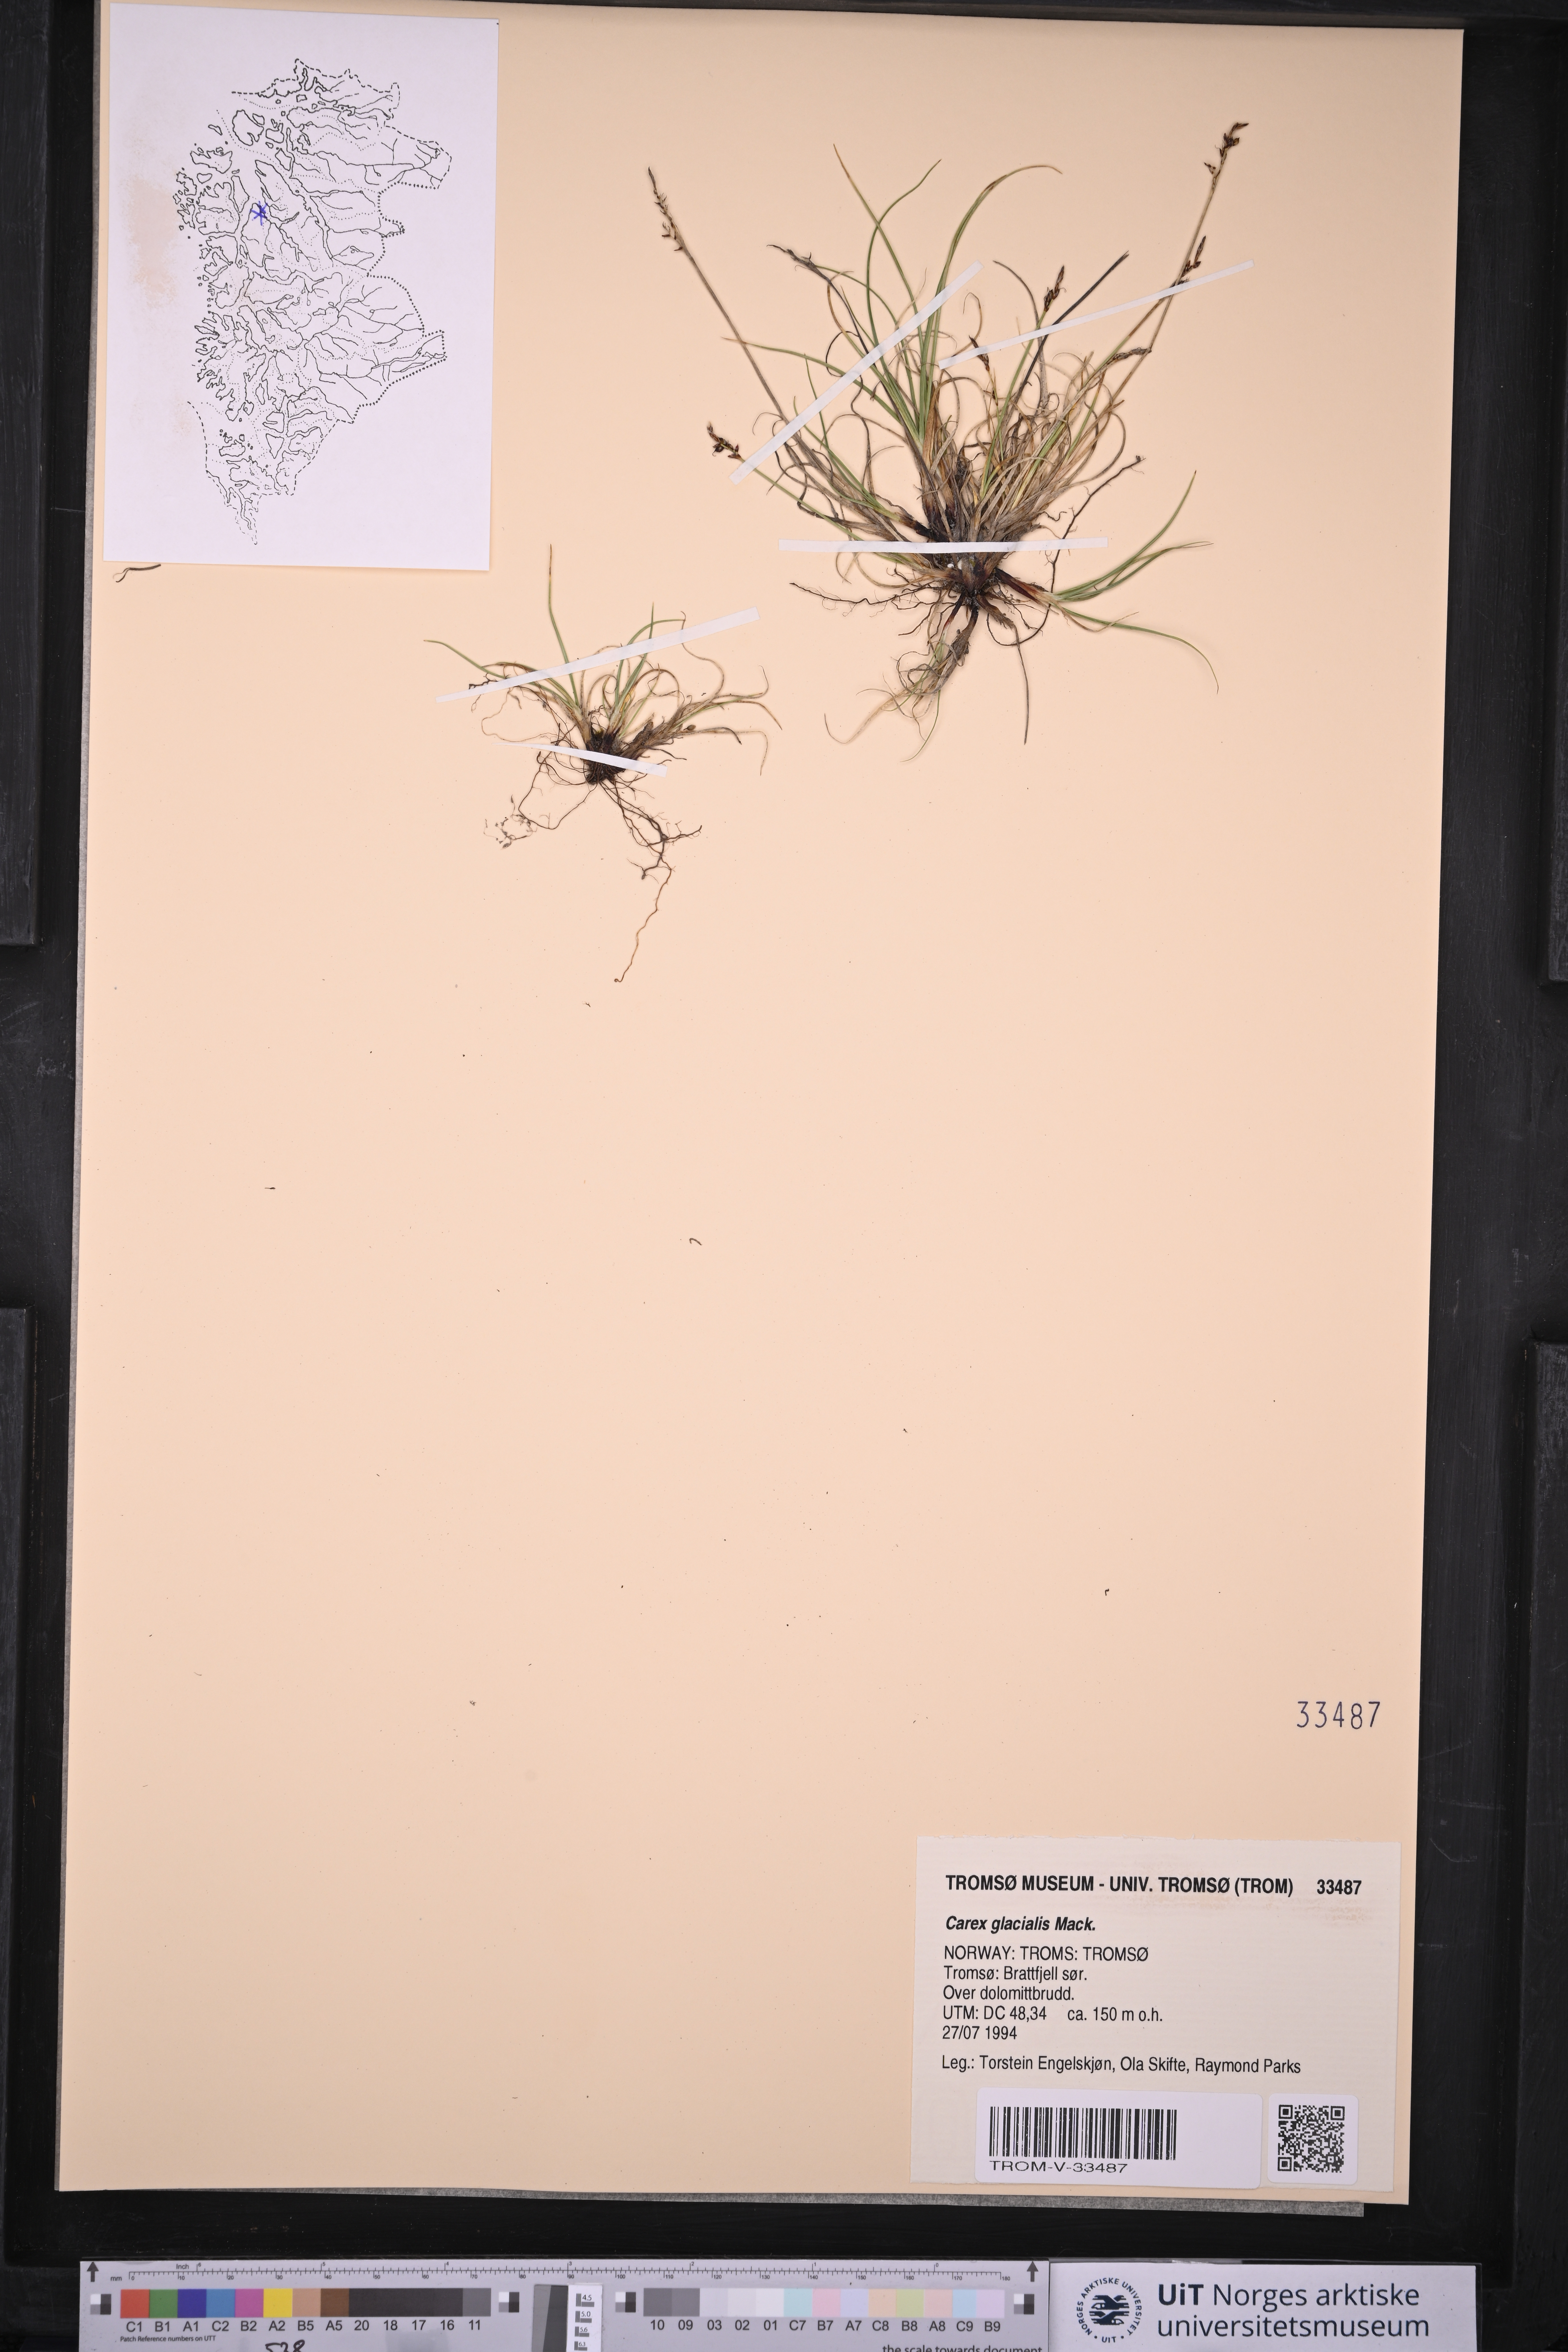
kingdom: Plantae
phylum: Tracheophyta
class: Liliopsida
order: Poales
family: Cyperaceae
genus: Carex
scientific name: Carex glacialis
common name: Newfoundland sedge
